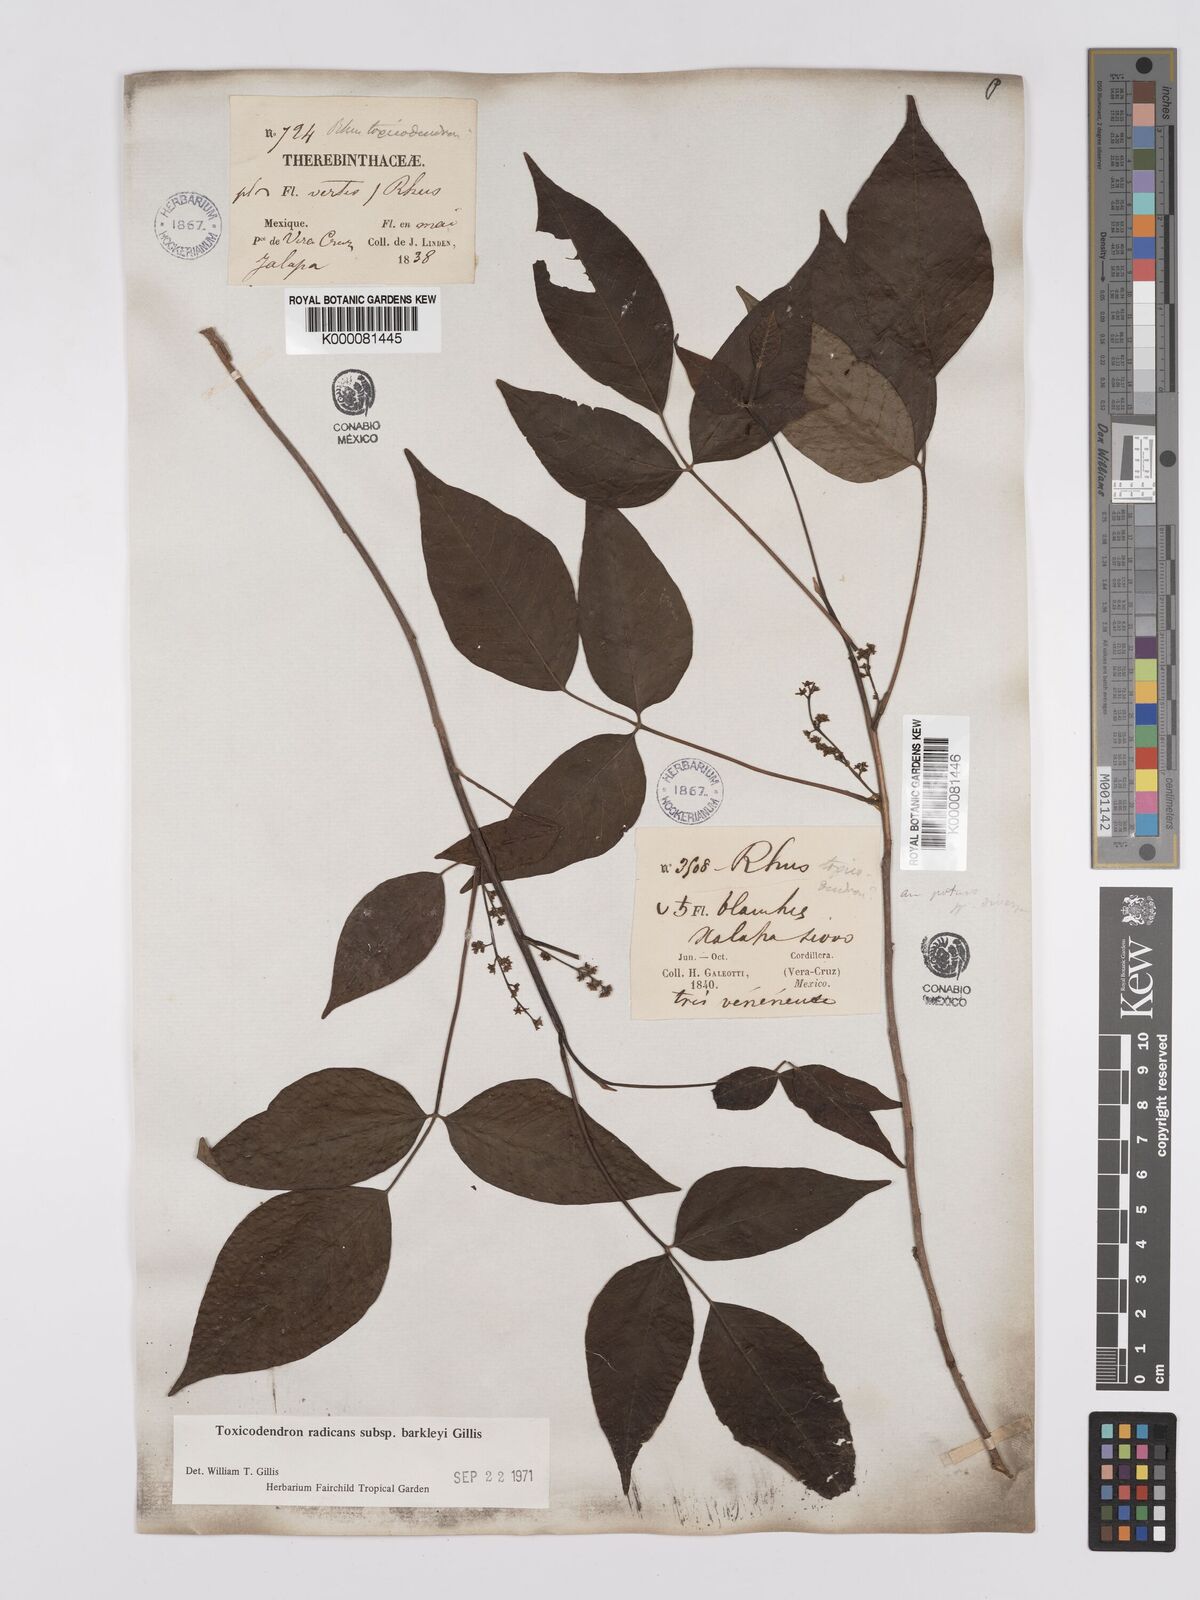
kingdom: Plantae
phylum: Tracheophyta
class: Magnoliopsida
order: Sapindales
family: Anacardiaceae
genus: Toxicodendron
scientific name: Toxicodendron radicans
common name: Poison ivy
